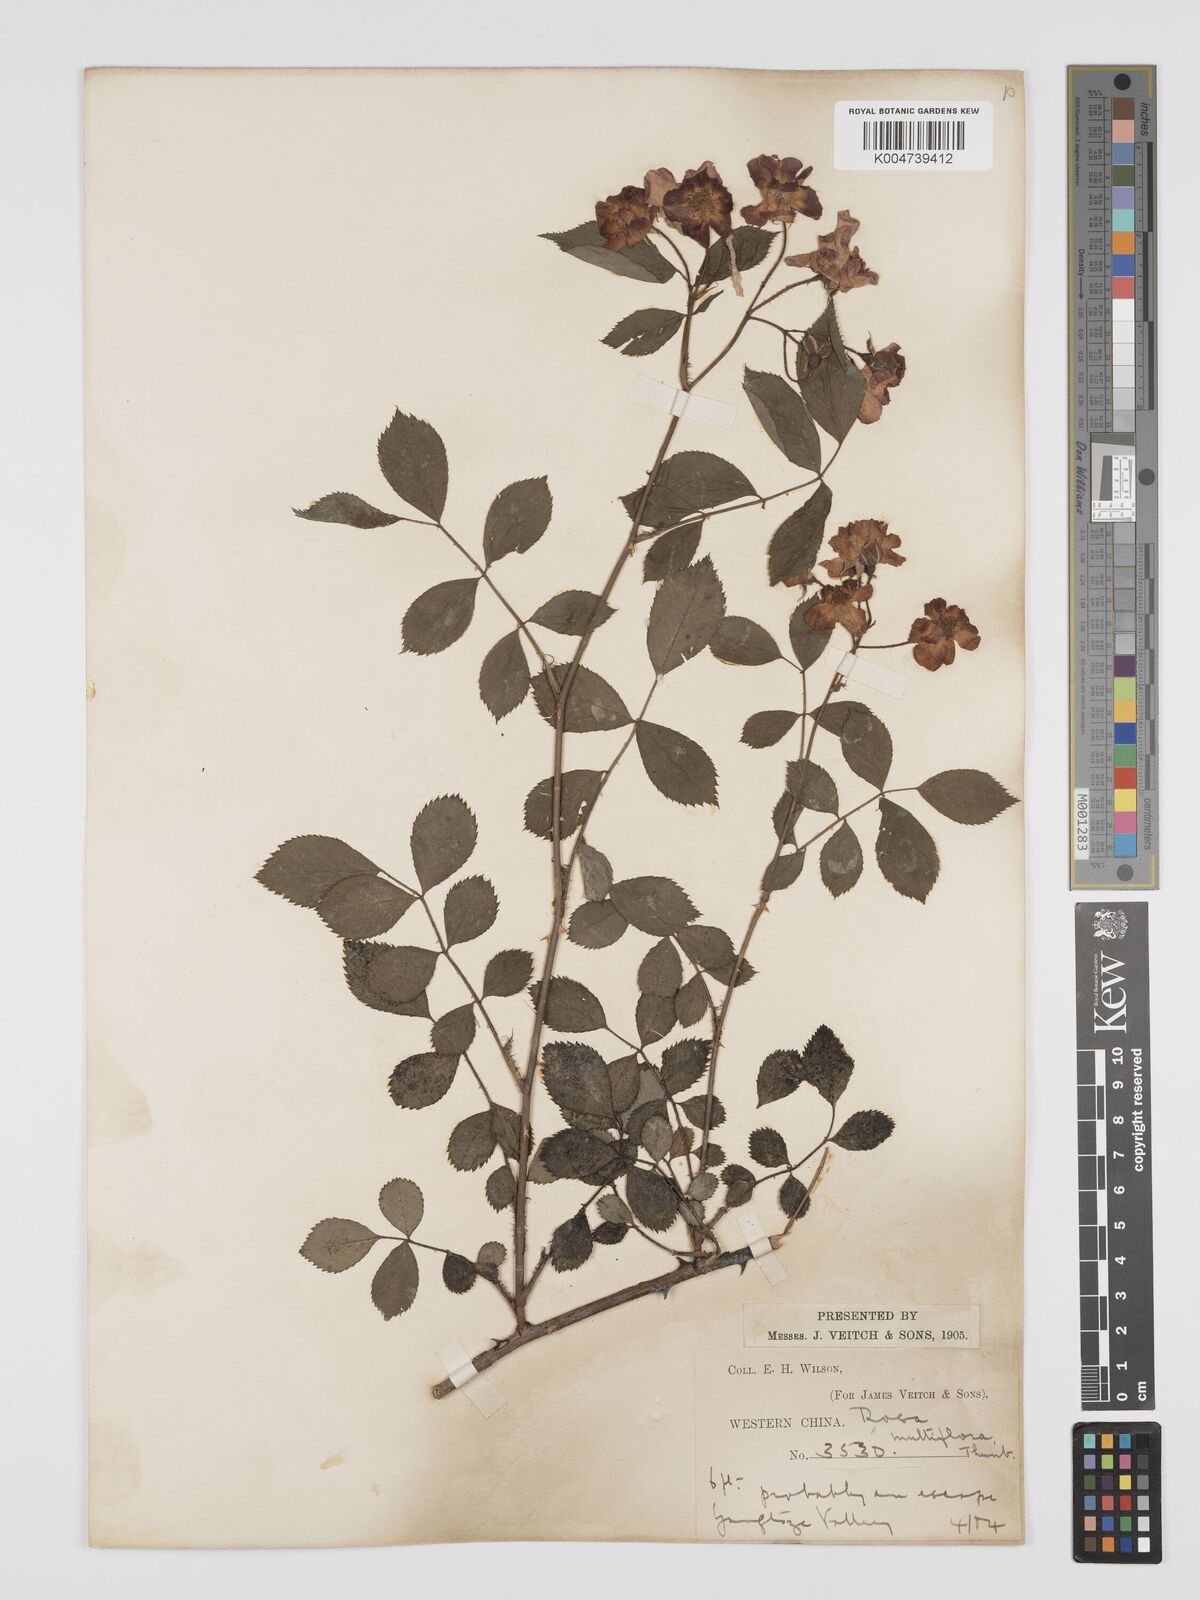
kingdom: Plantae
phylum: Tracheophyta
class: Magnoliopsida
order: Rosales
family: Rosaceae
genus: Rosa
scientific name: Rosa
